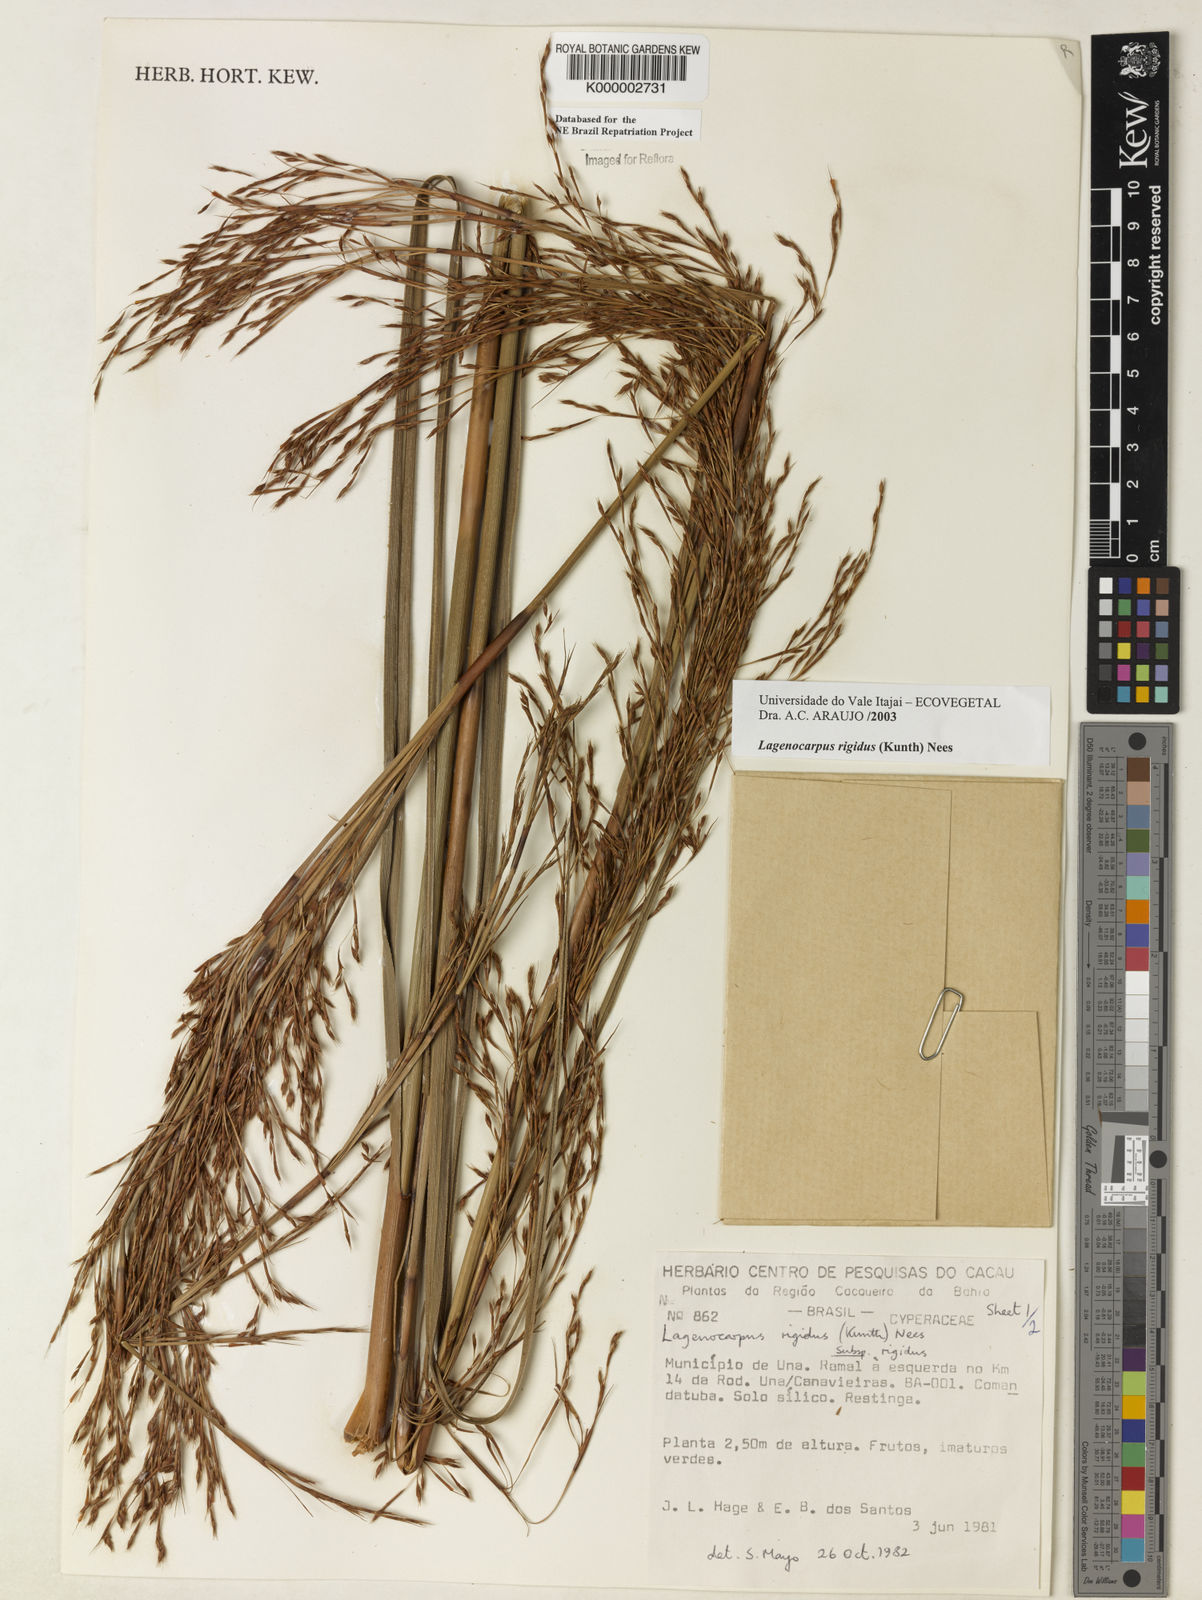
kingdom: Plantae
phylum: Tracheophyta
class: Liliopsida
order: Poales
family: Cyperaceae
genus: Lagenocarpus
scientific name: Lagenocarpus rigidus
